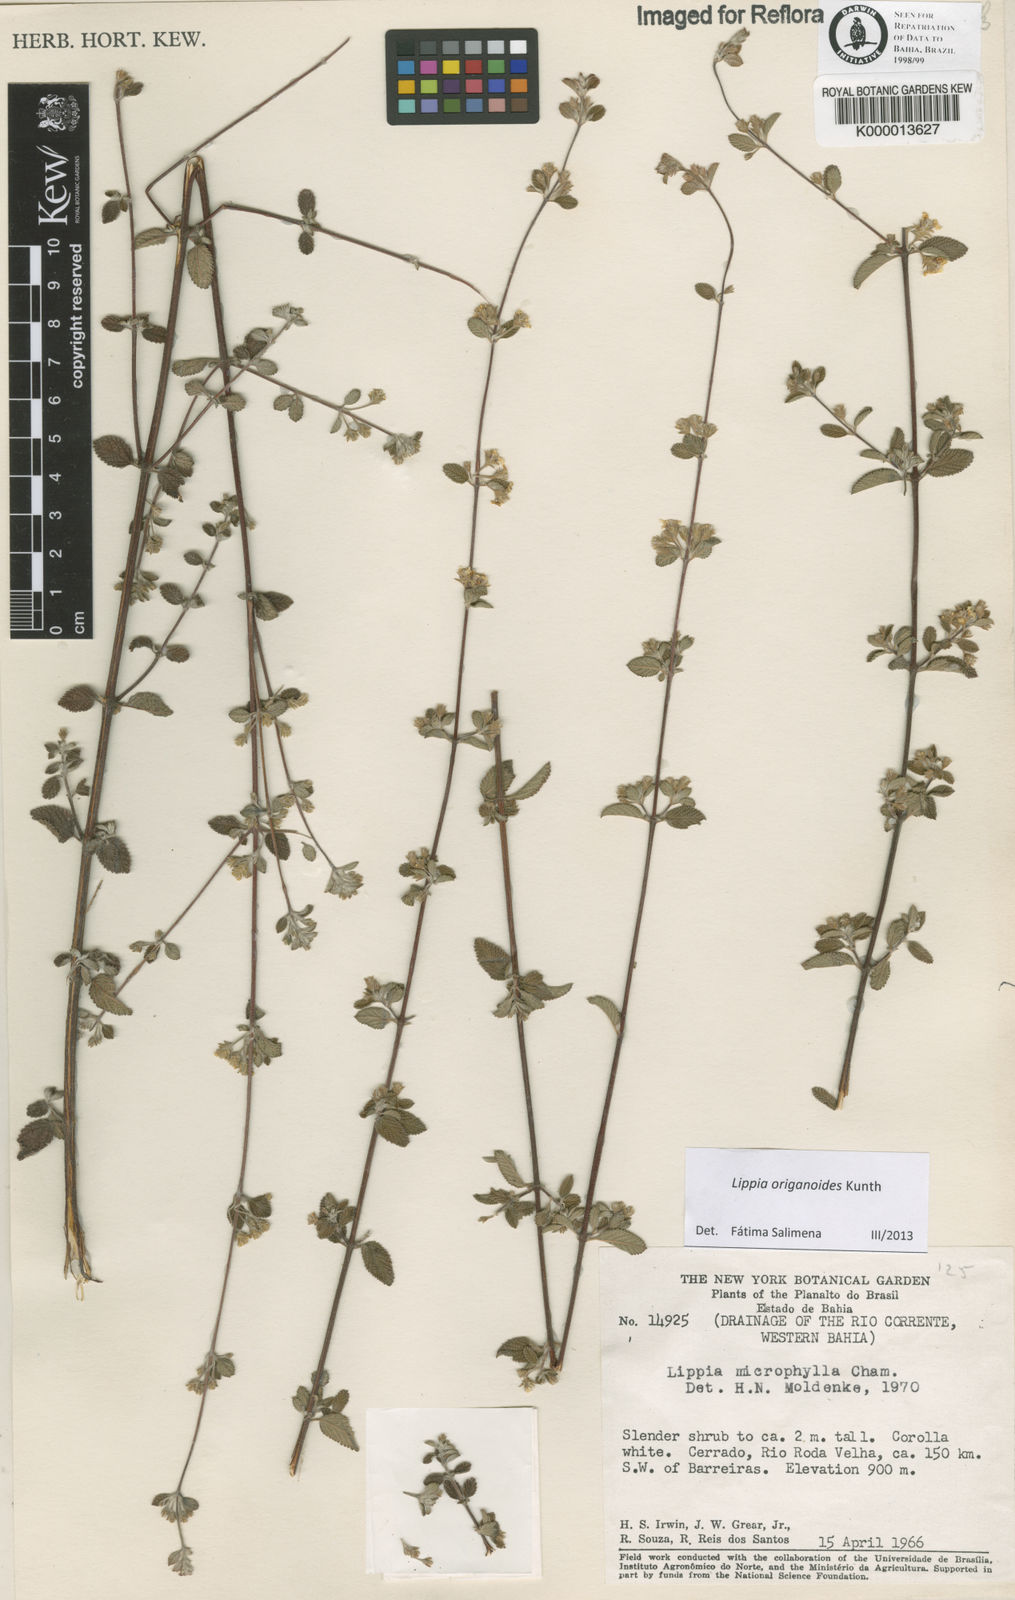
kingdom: Plantae
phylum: Tracheophyta
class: Magnoliopsida
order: Lamiales
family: Verbenaceae
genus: Lippia
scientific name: Lippia origanoides
